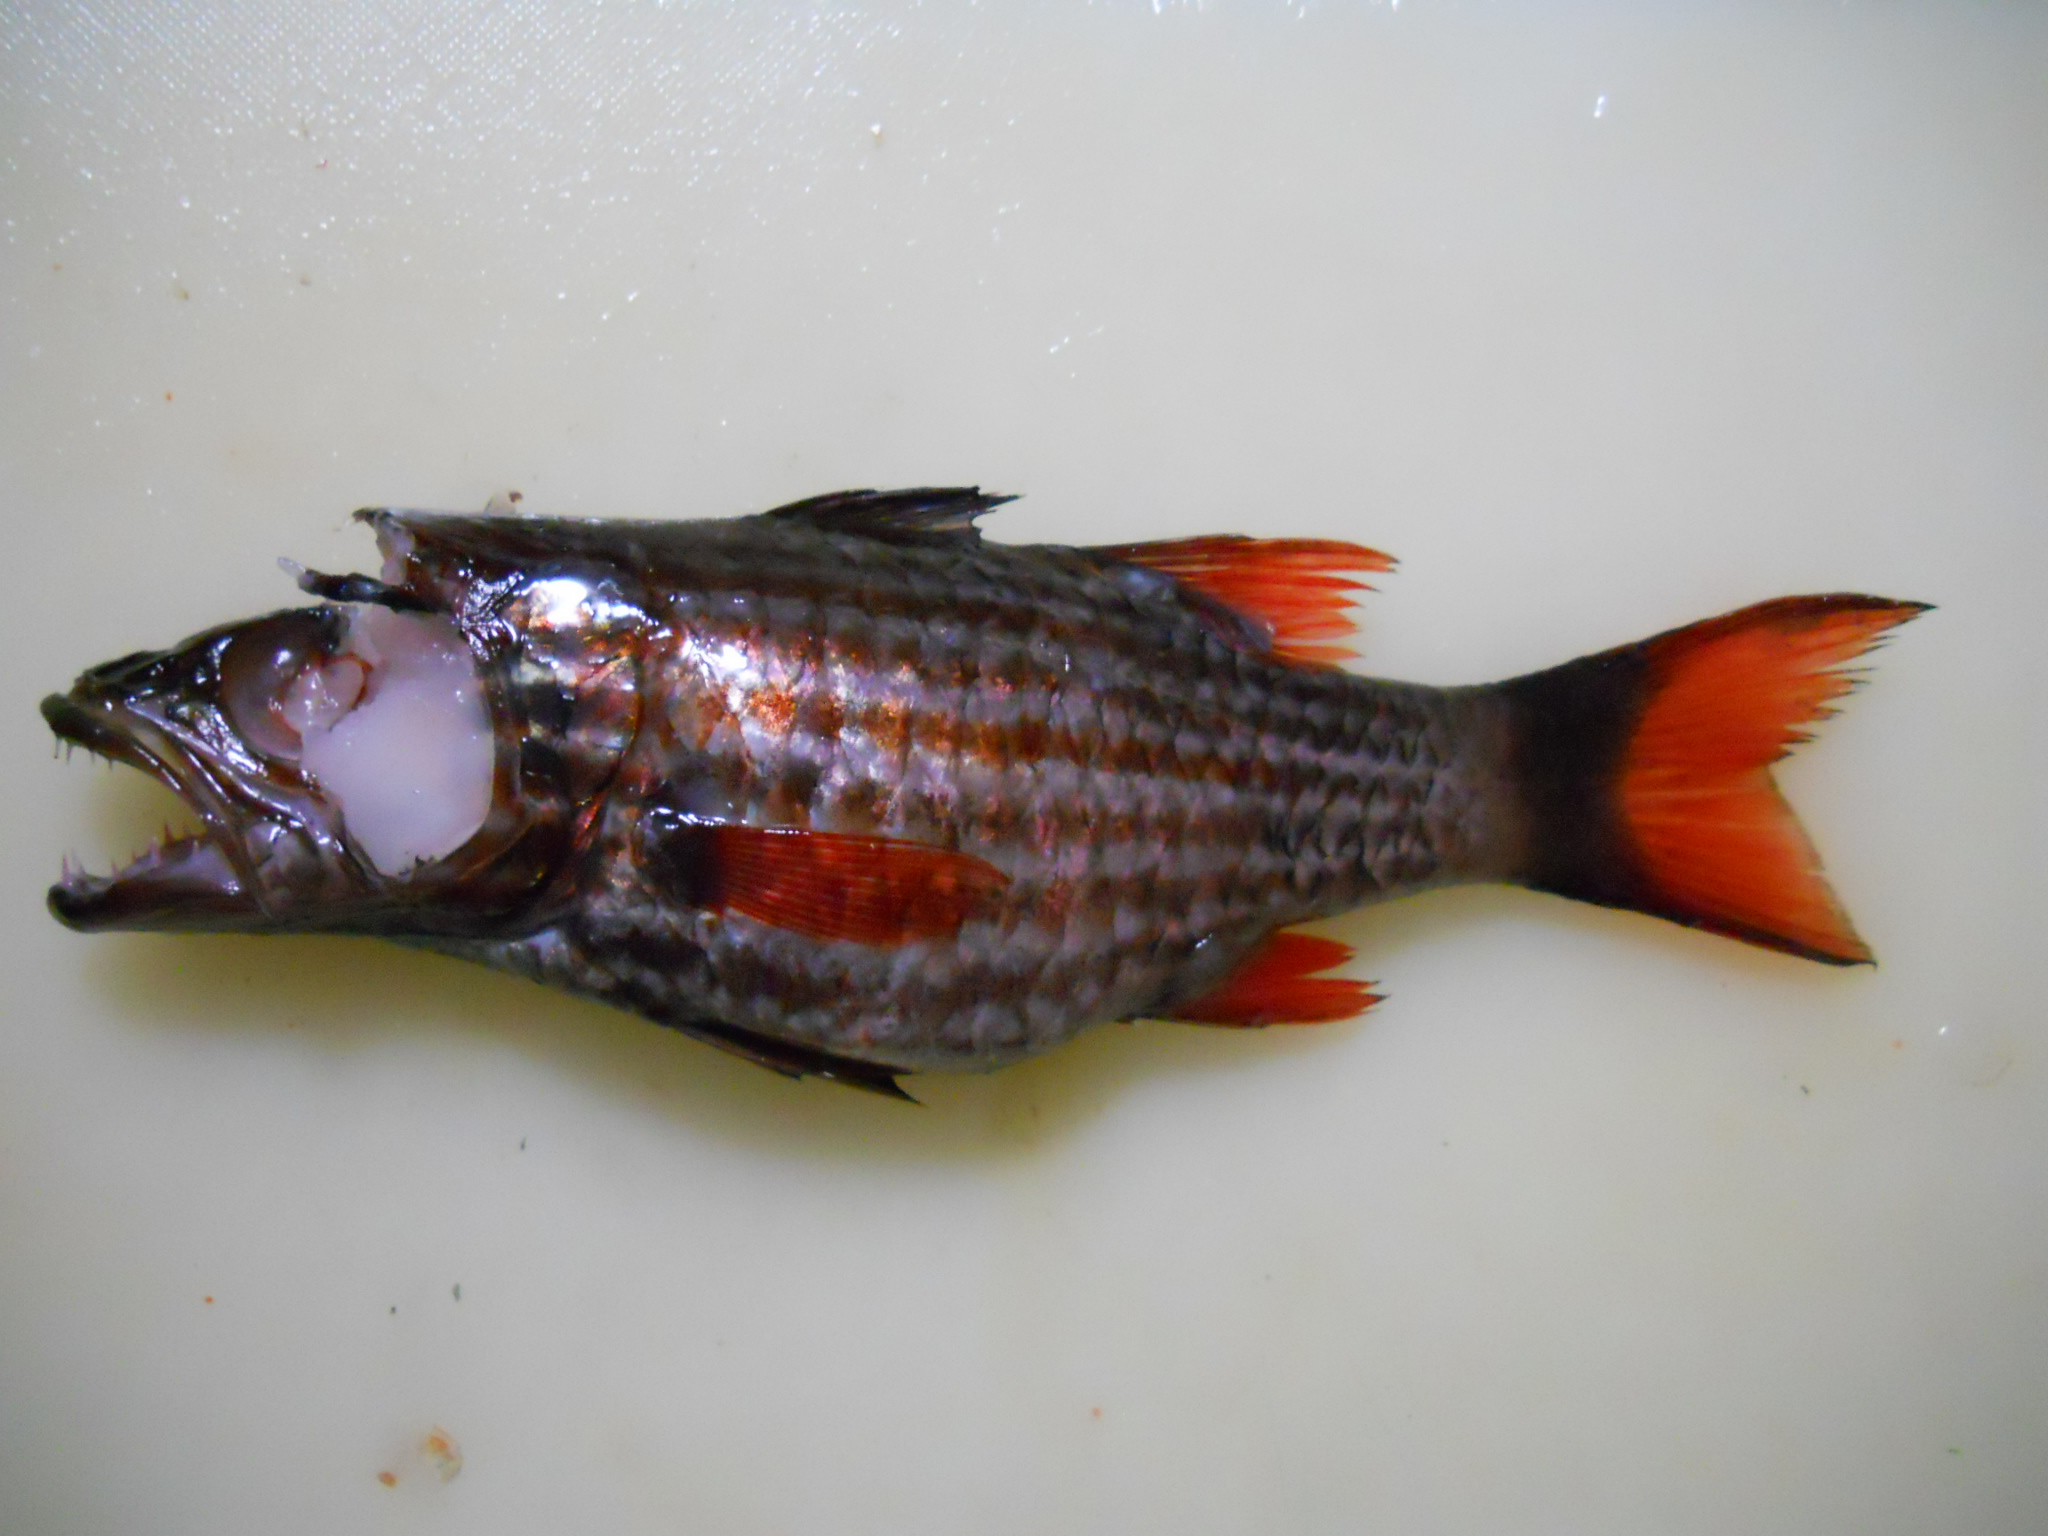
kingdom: Animalia
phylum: Chordata
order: Perciformes
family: Apogonidae
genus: Cheilodipterus
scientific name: Cheilodipterus macrodon
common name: Eight-lined cardinalfish
